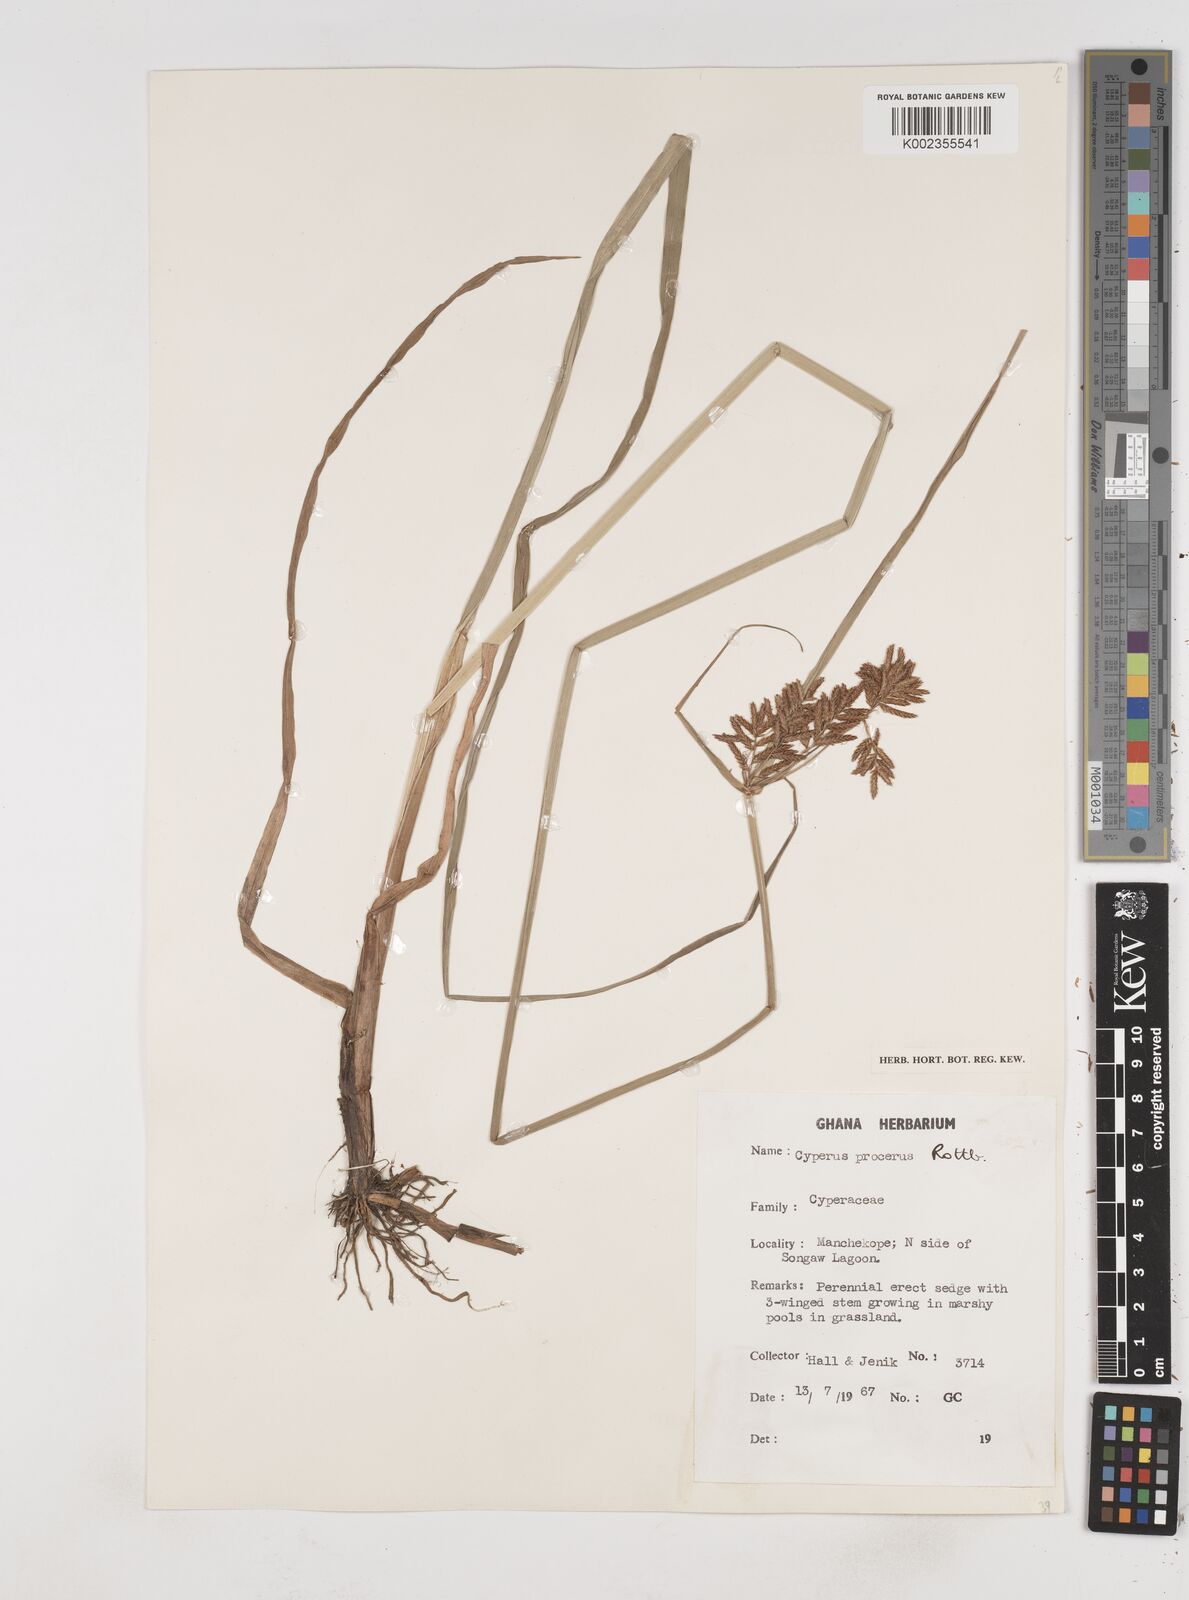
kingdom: Plantae
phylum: Tracheophyta
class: Liliopsida
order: Poales
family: Cyperaceae
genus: Cyperus
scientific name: Cyperus procerus
